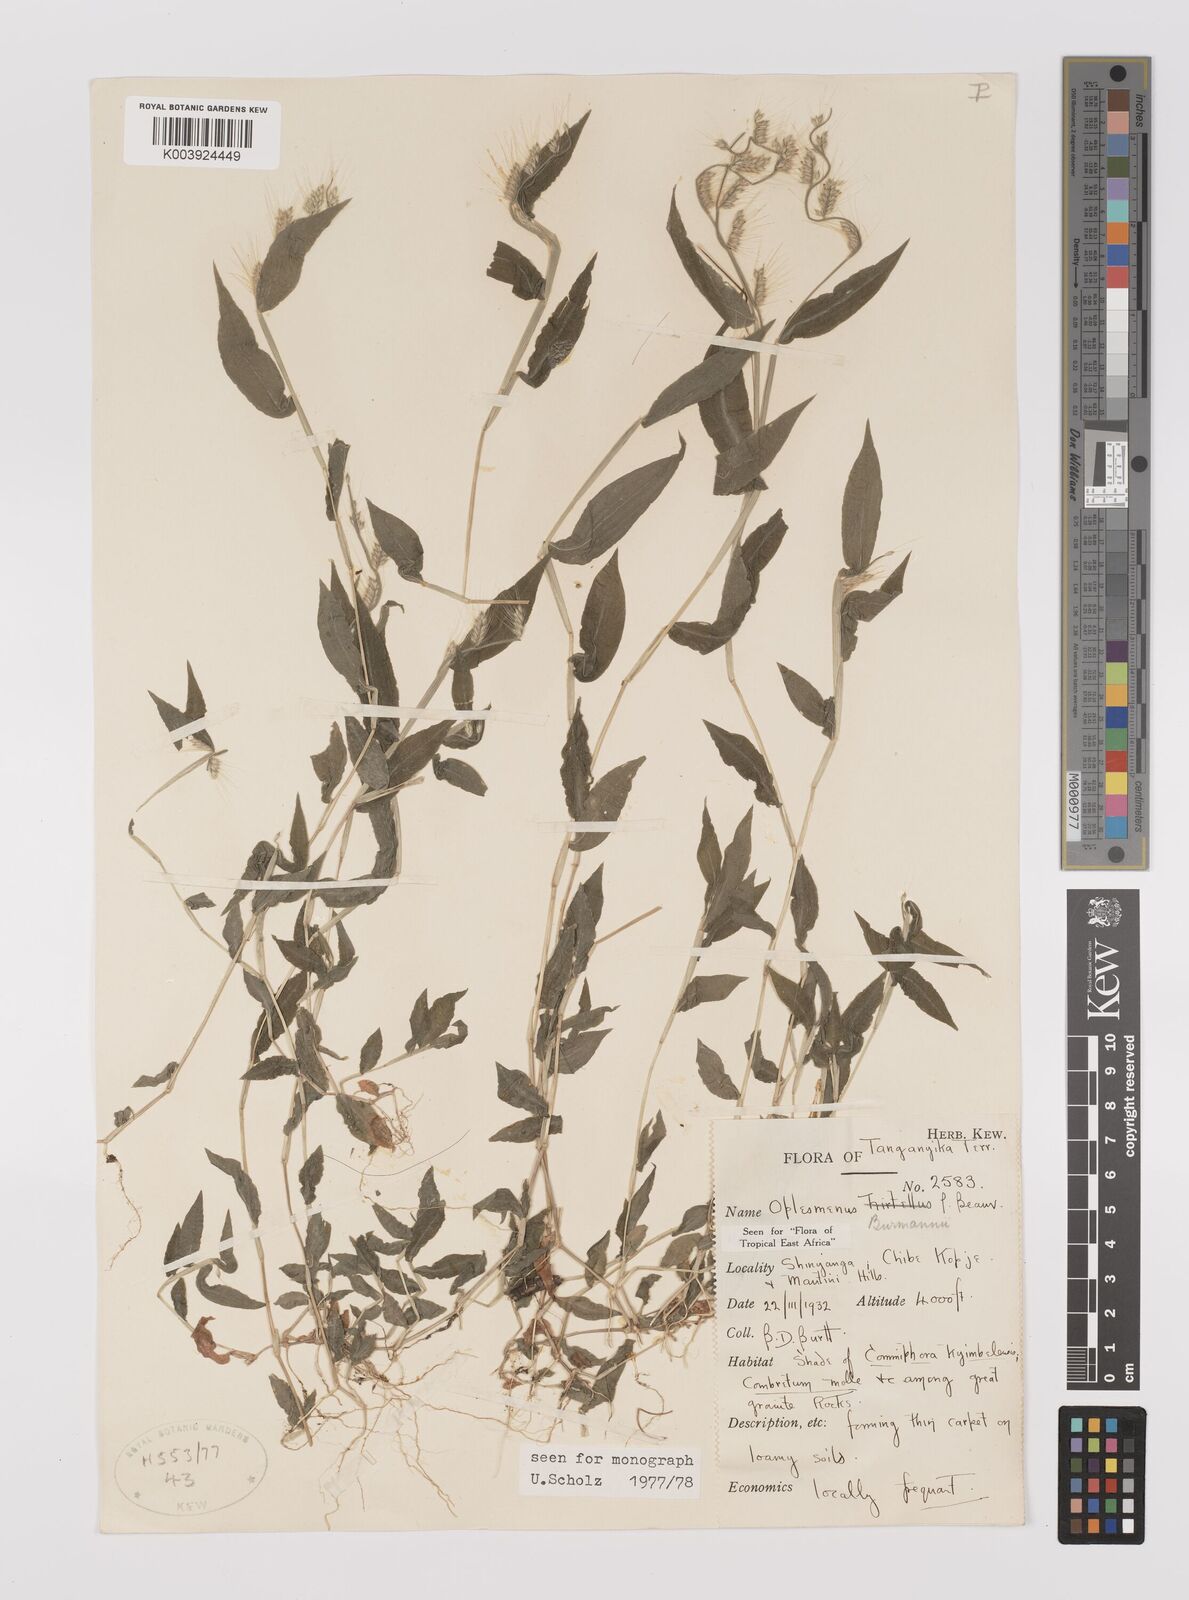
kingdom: Plantae
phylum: Tracheophyta
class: Liliopsida
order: Poales
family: Poaceae
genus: Oplismenus
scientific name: Oplismenus burmanni
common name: Burmann's basketgrass
